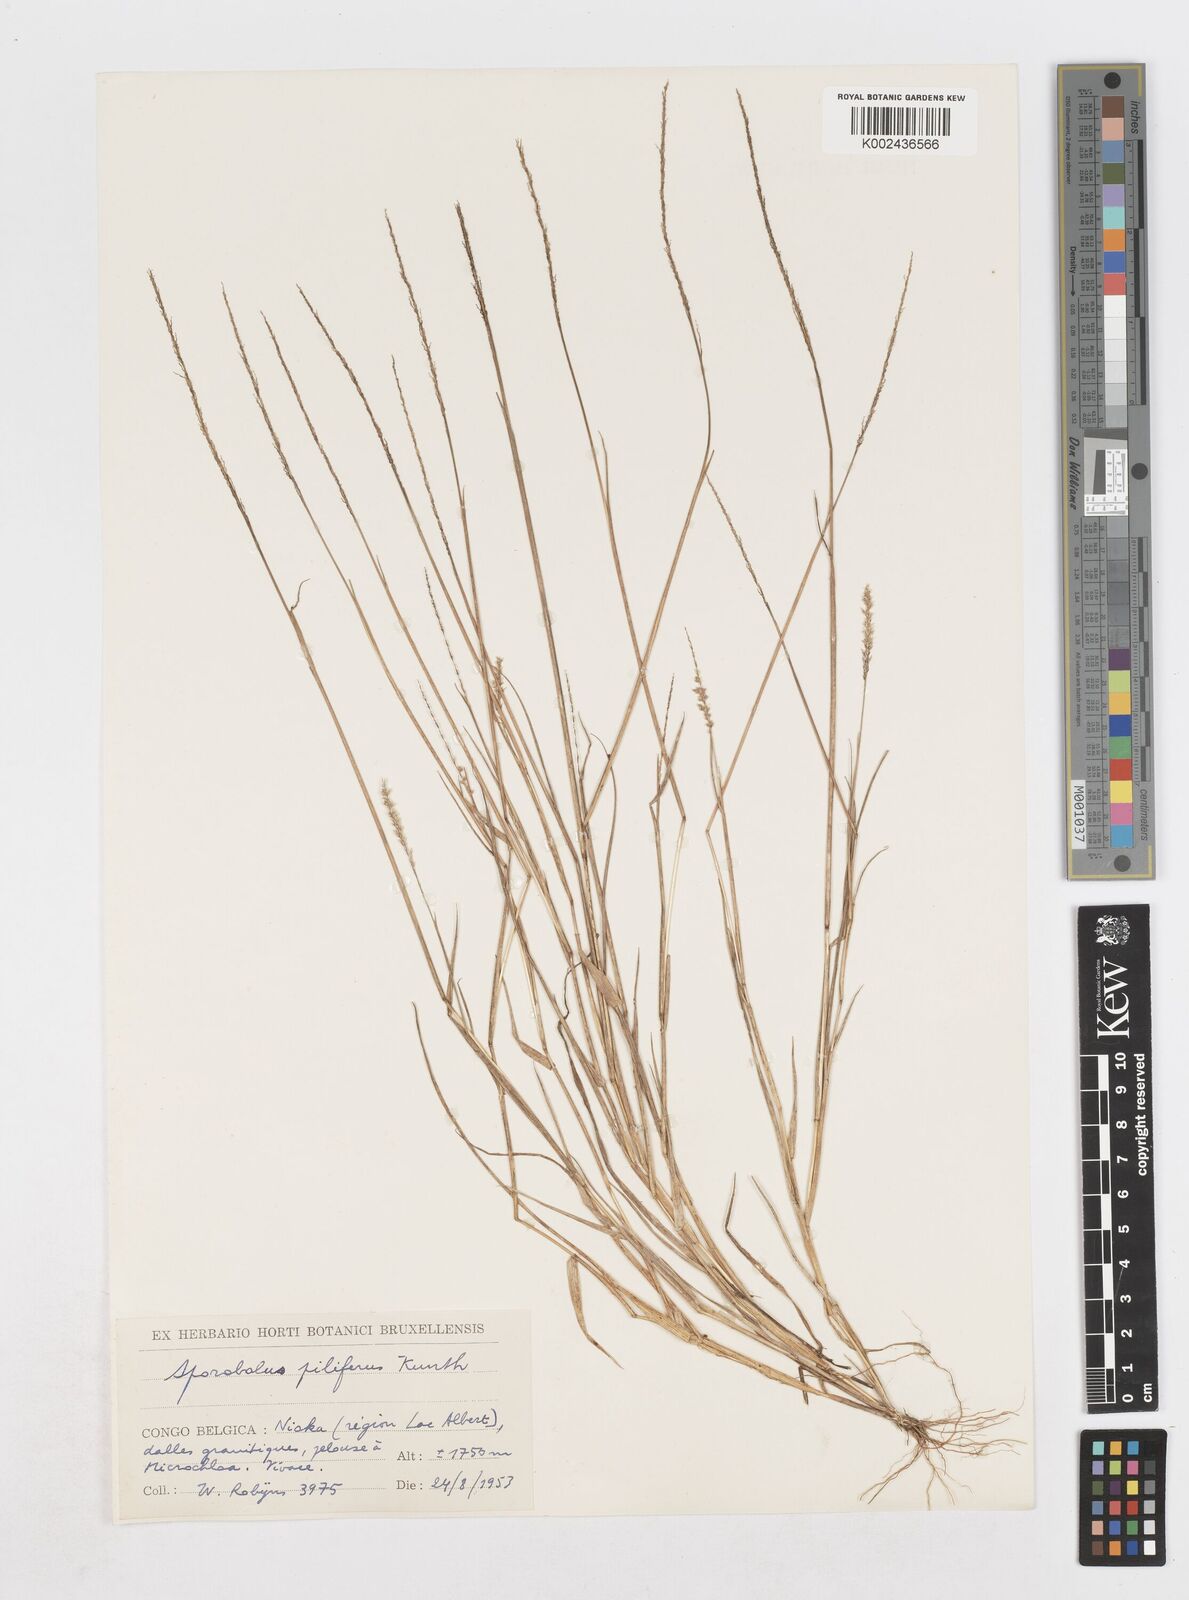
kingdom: Plantae
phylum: Tracheophyta
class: Liliopsida
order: Poales
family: Poaceae
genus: Sporobolus
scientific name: Sporobolus pilifer
